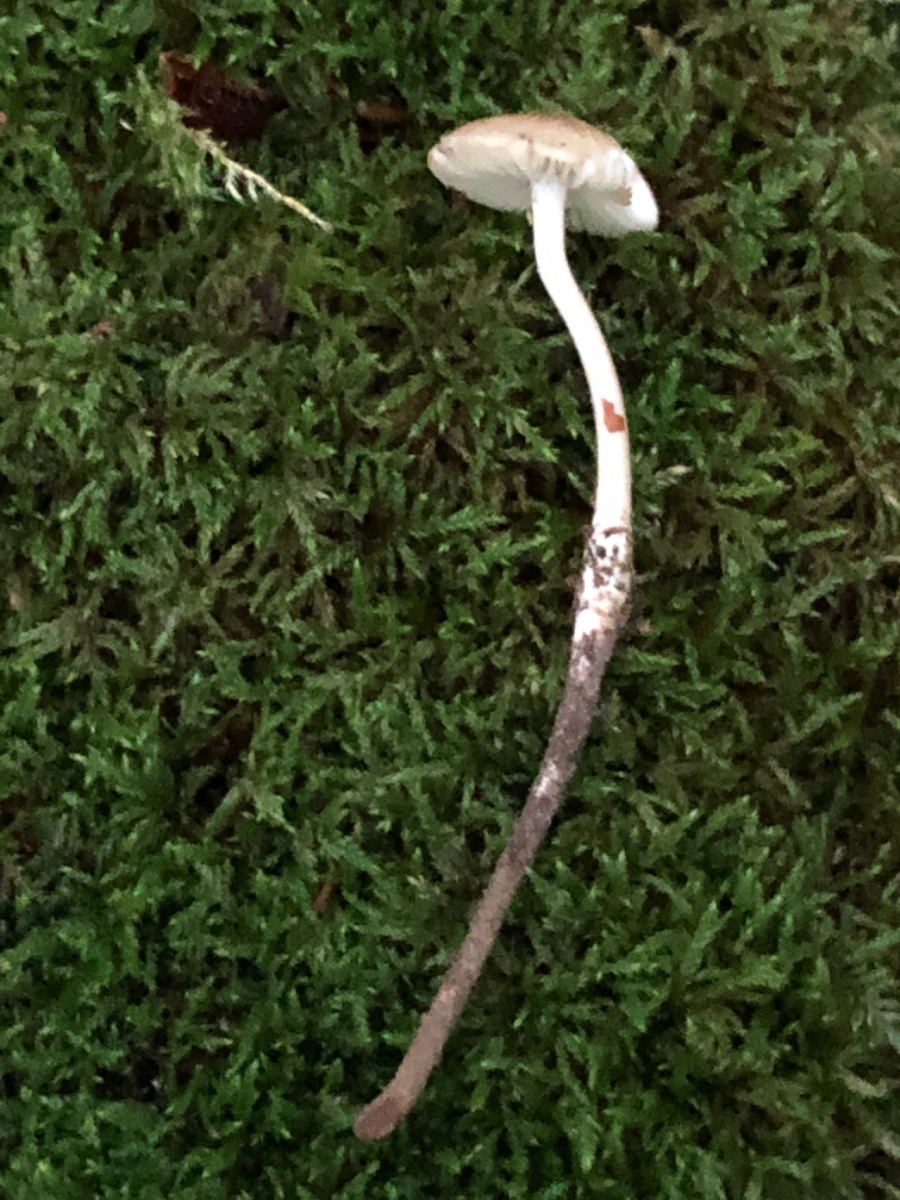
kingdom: Fungi
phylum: Basidiomycota
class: Agaricomycetes
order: Agaricales
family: Physalacriaceae
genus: Hymenopellis
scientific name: Hymenopellis radicata
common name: almindelig pælerodshat
